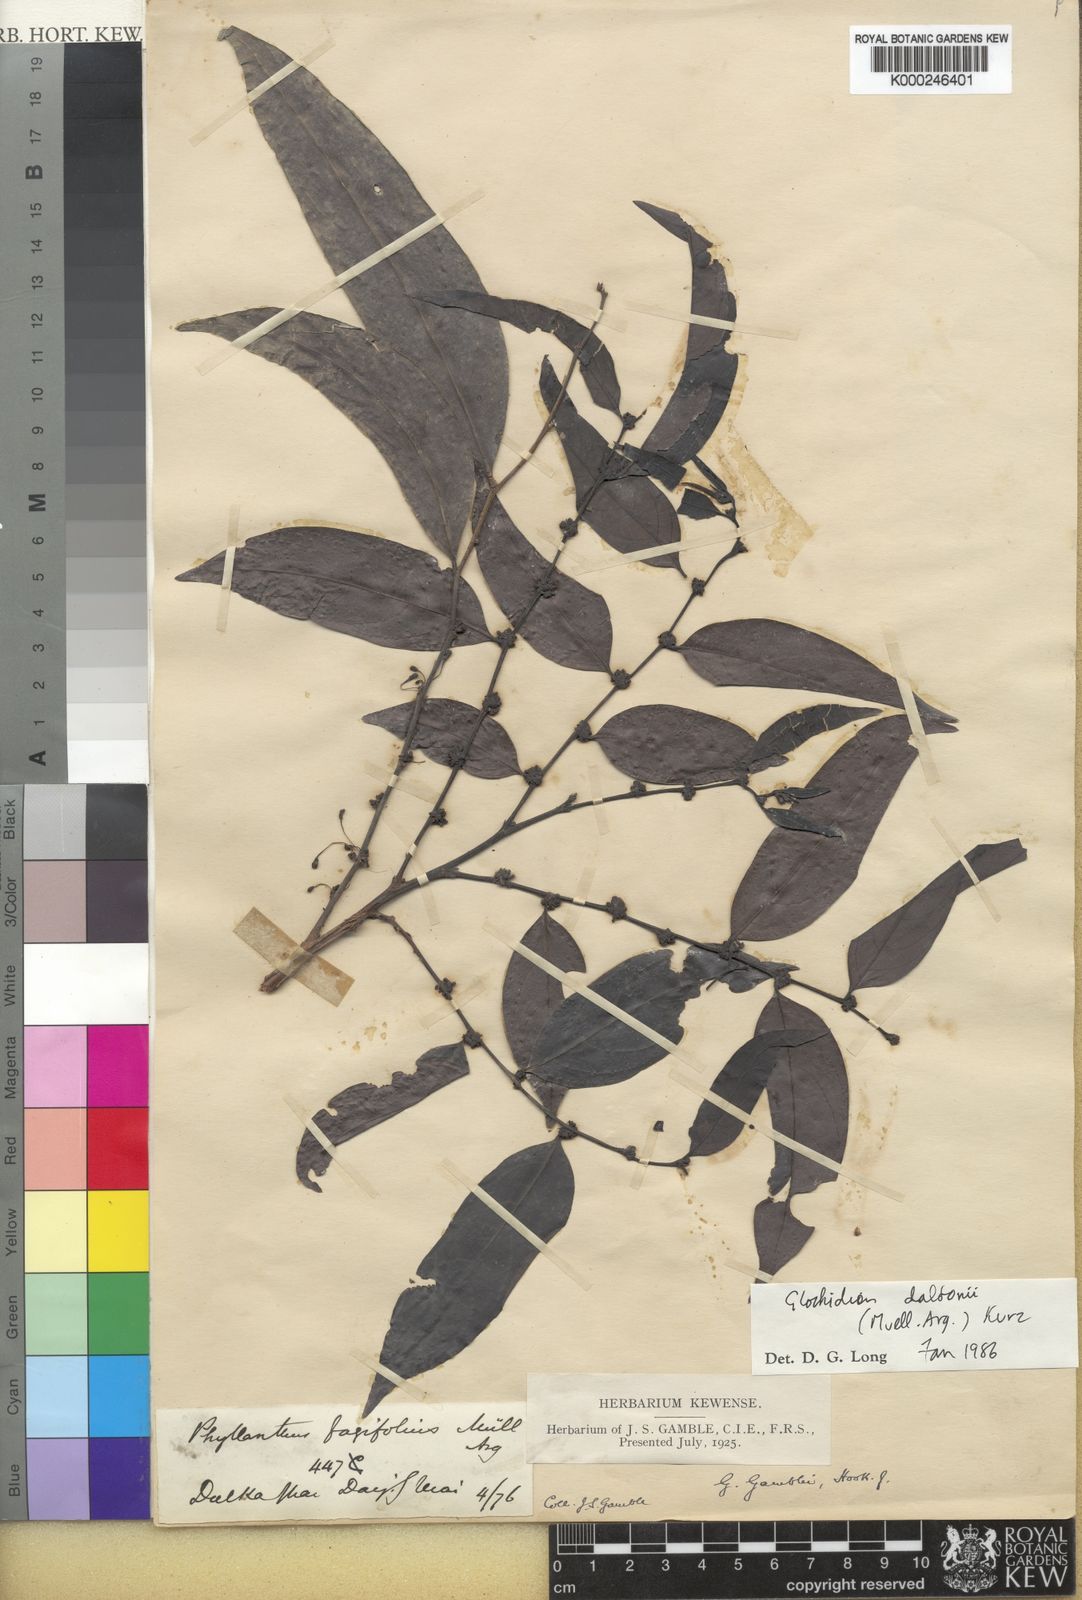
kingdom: Plantae
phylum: Tracheophyta
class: Magnoliopsida
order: Malpighiales
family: Phyllanthaceae
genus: Glochidion
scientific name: Glochidion
